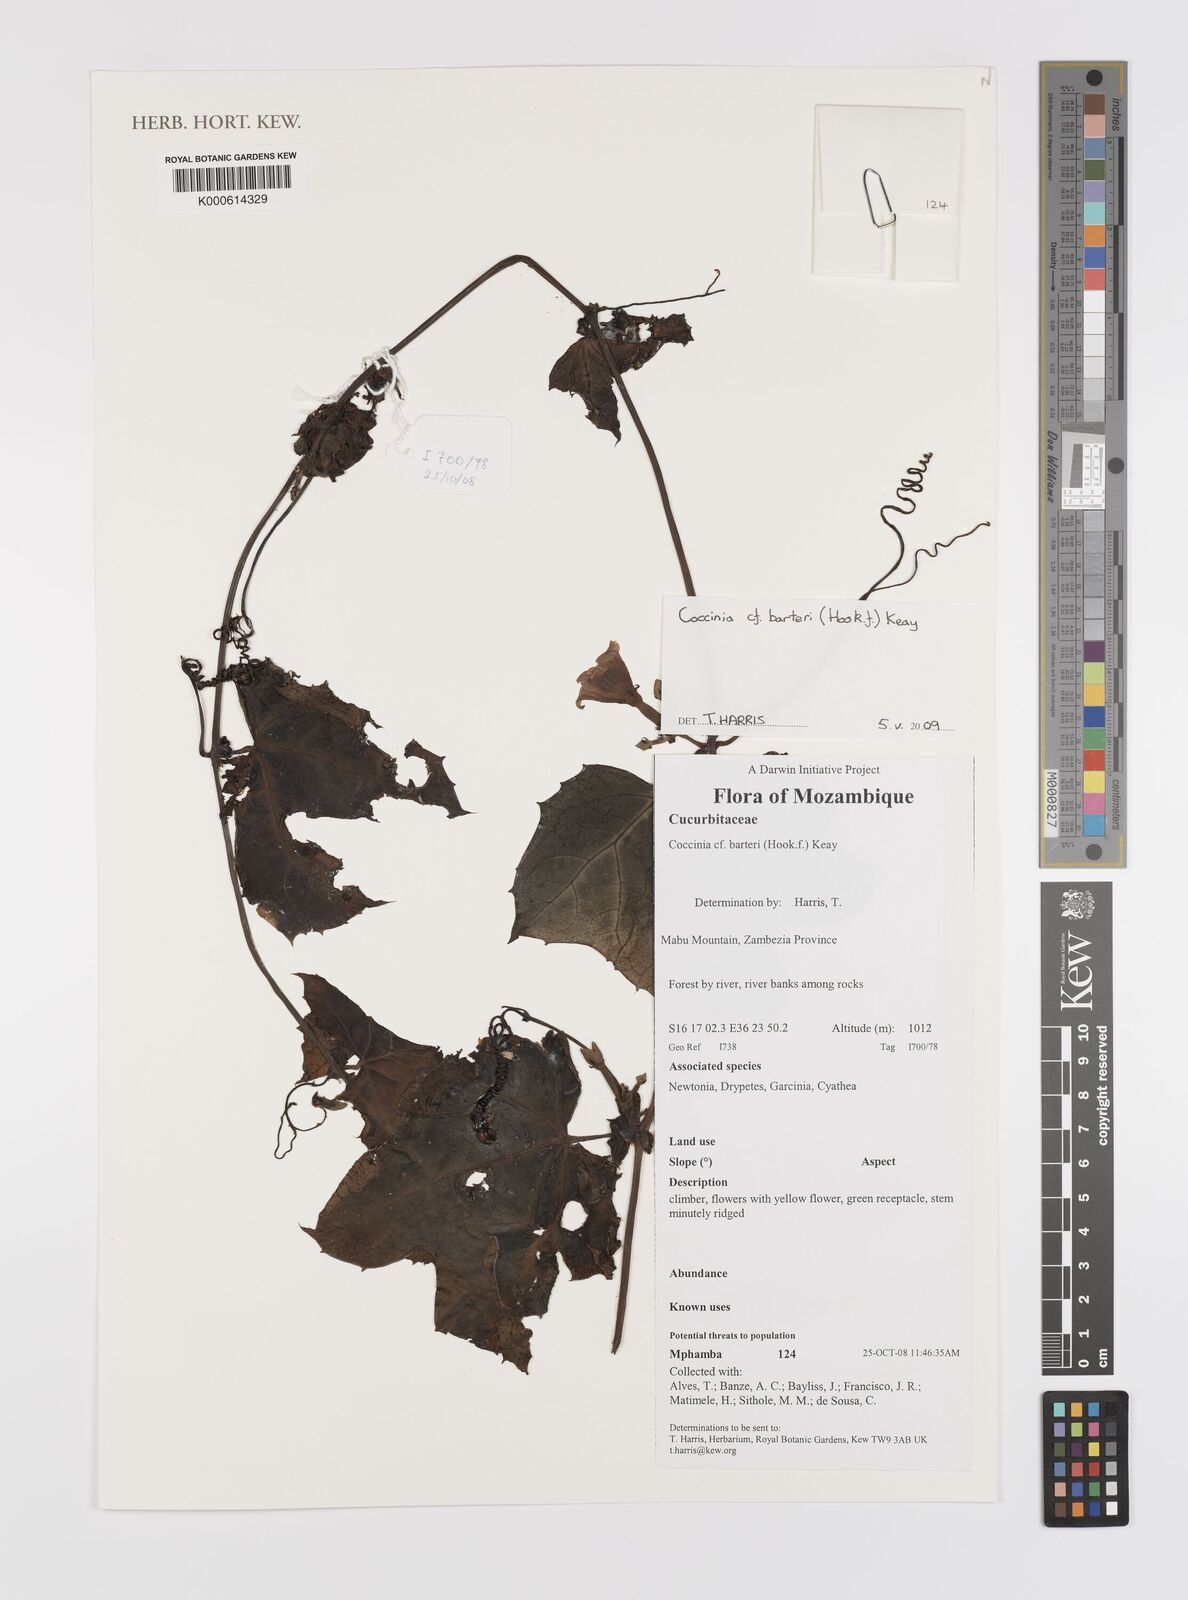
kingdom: Plantae
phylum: Tracheophyta
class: Magnoliopsida
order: Cucurbitales
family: Cucurbitaceae
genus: Coccinia
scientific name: Coccinia barteri
